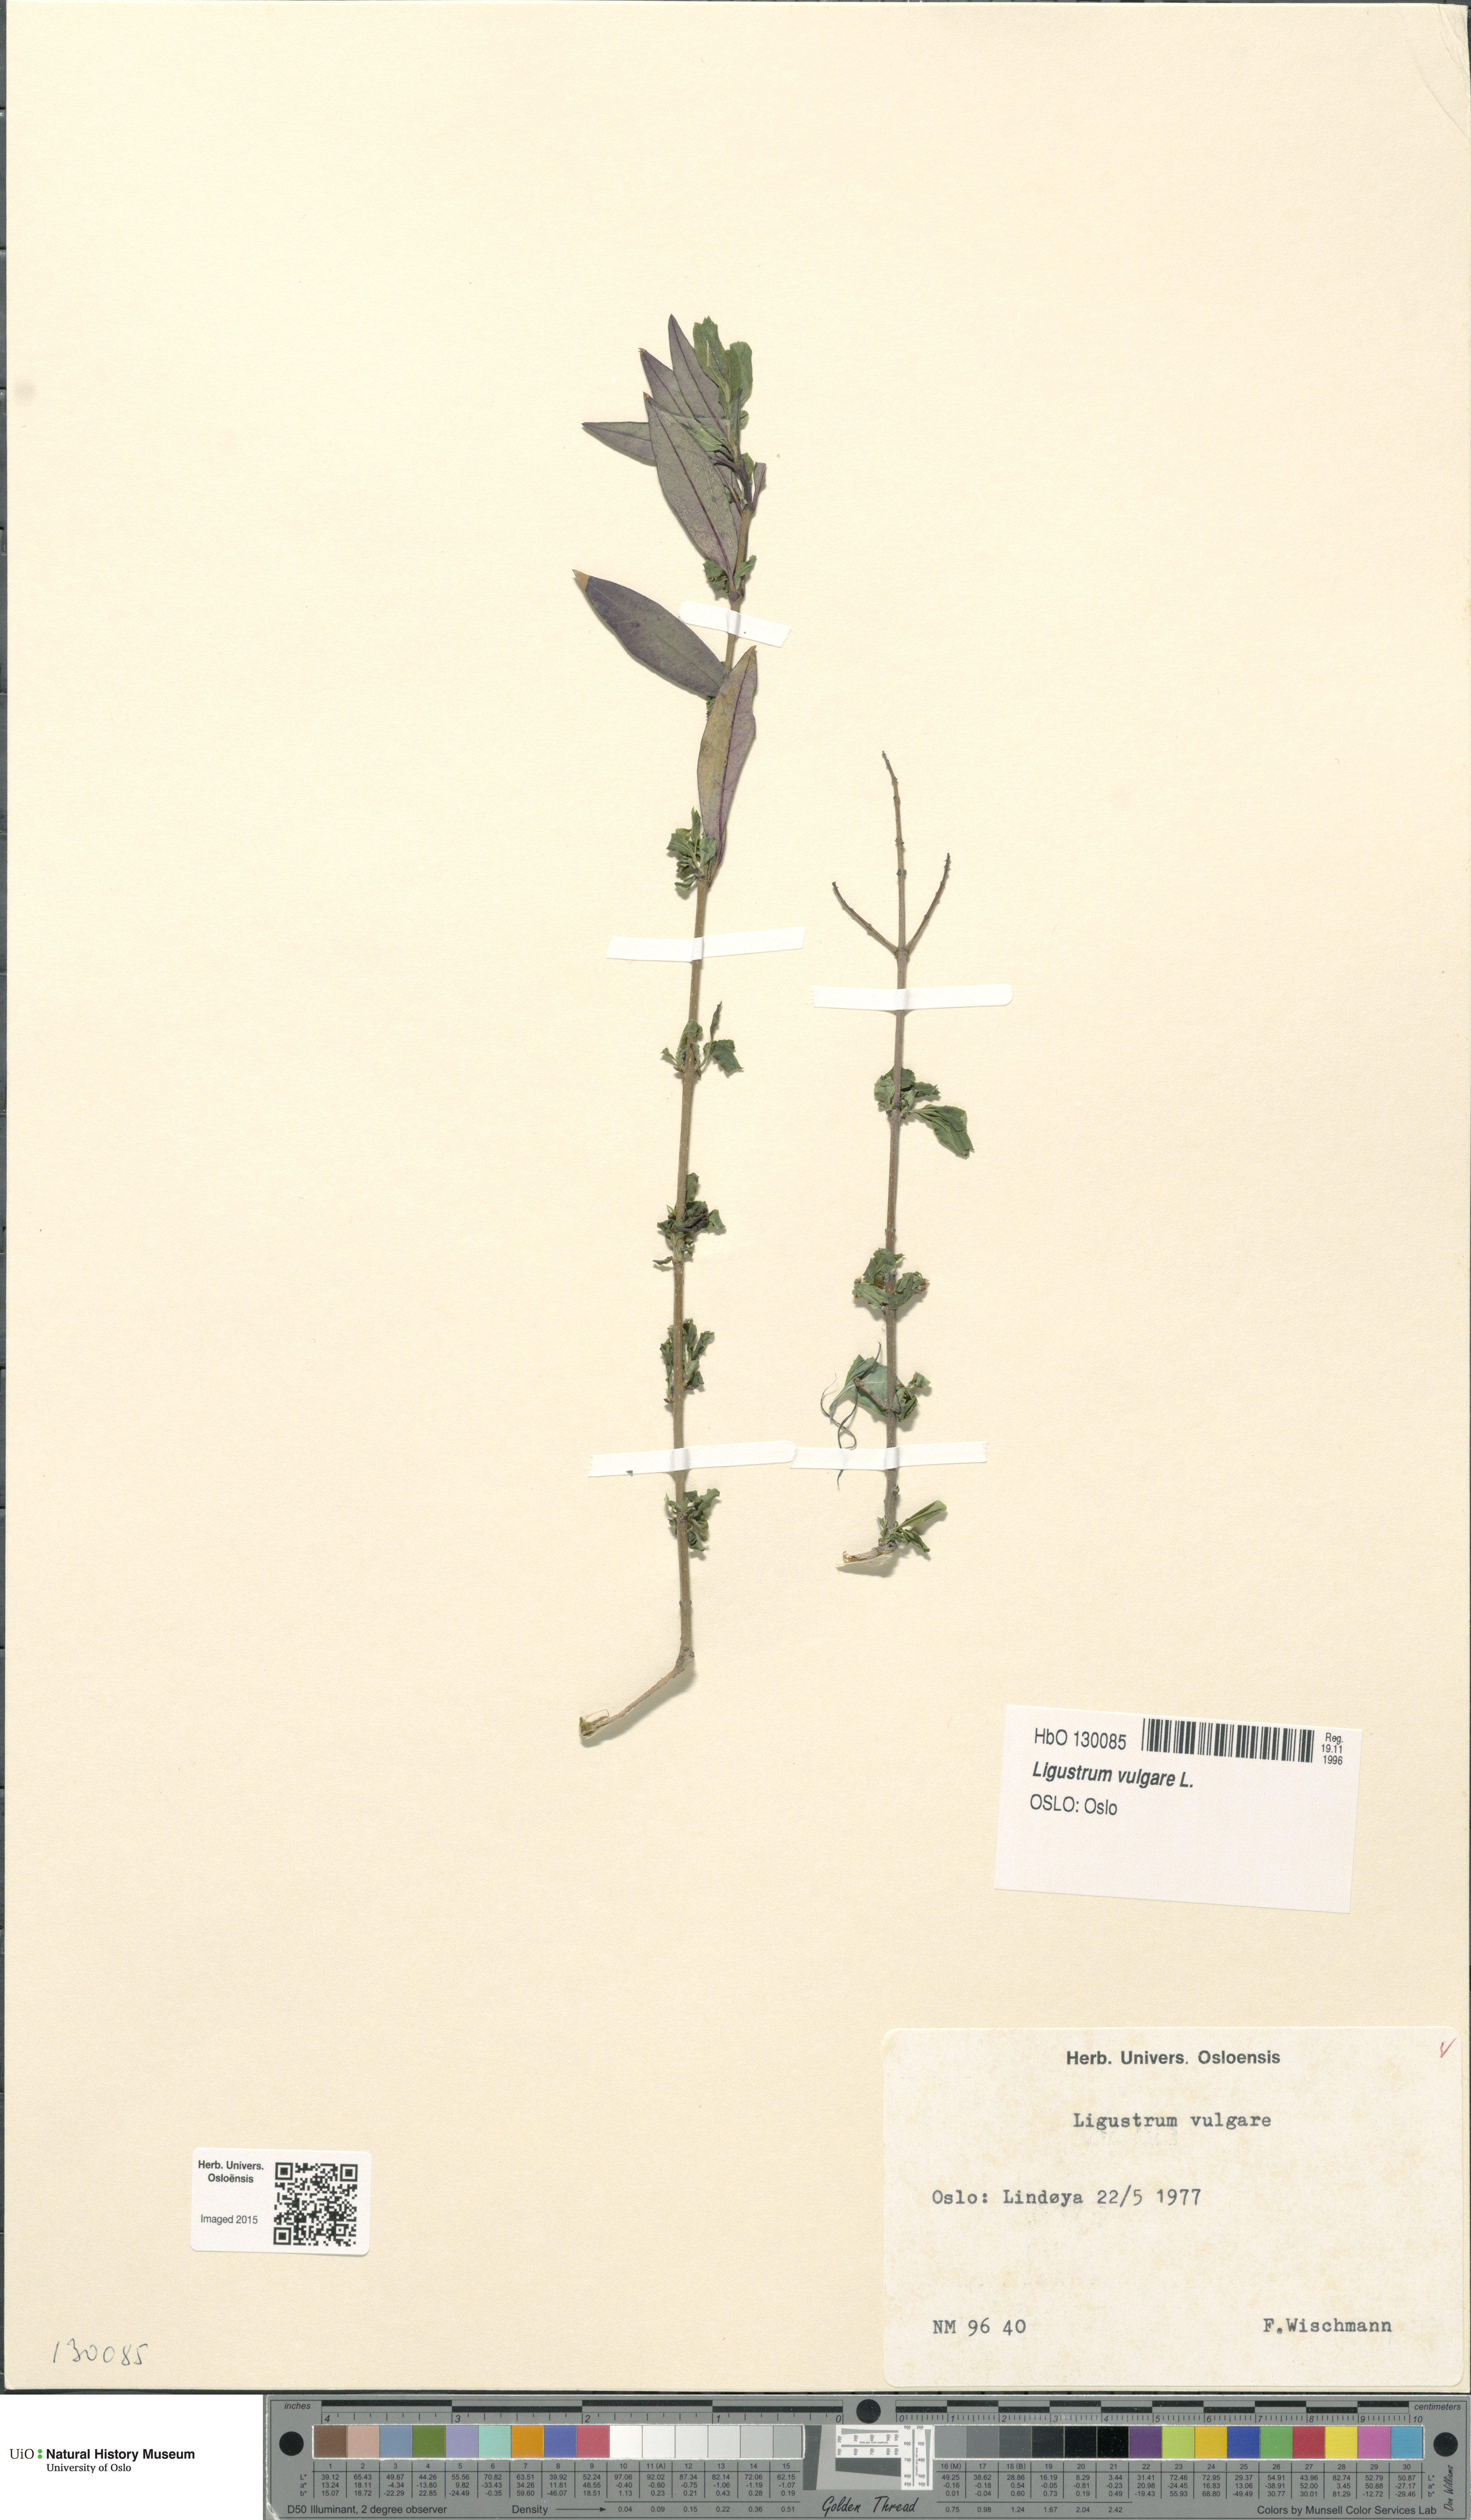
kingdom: Plantae
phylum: Tracheophyta
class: Magnoliopsida
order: Lamiales
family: Oleaceae
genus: Ligustrum
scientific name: Ligustrum vulgare
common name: Wild privet
